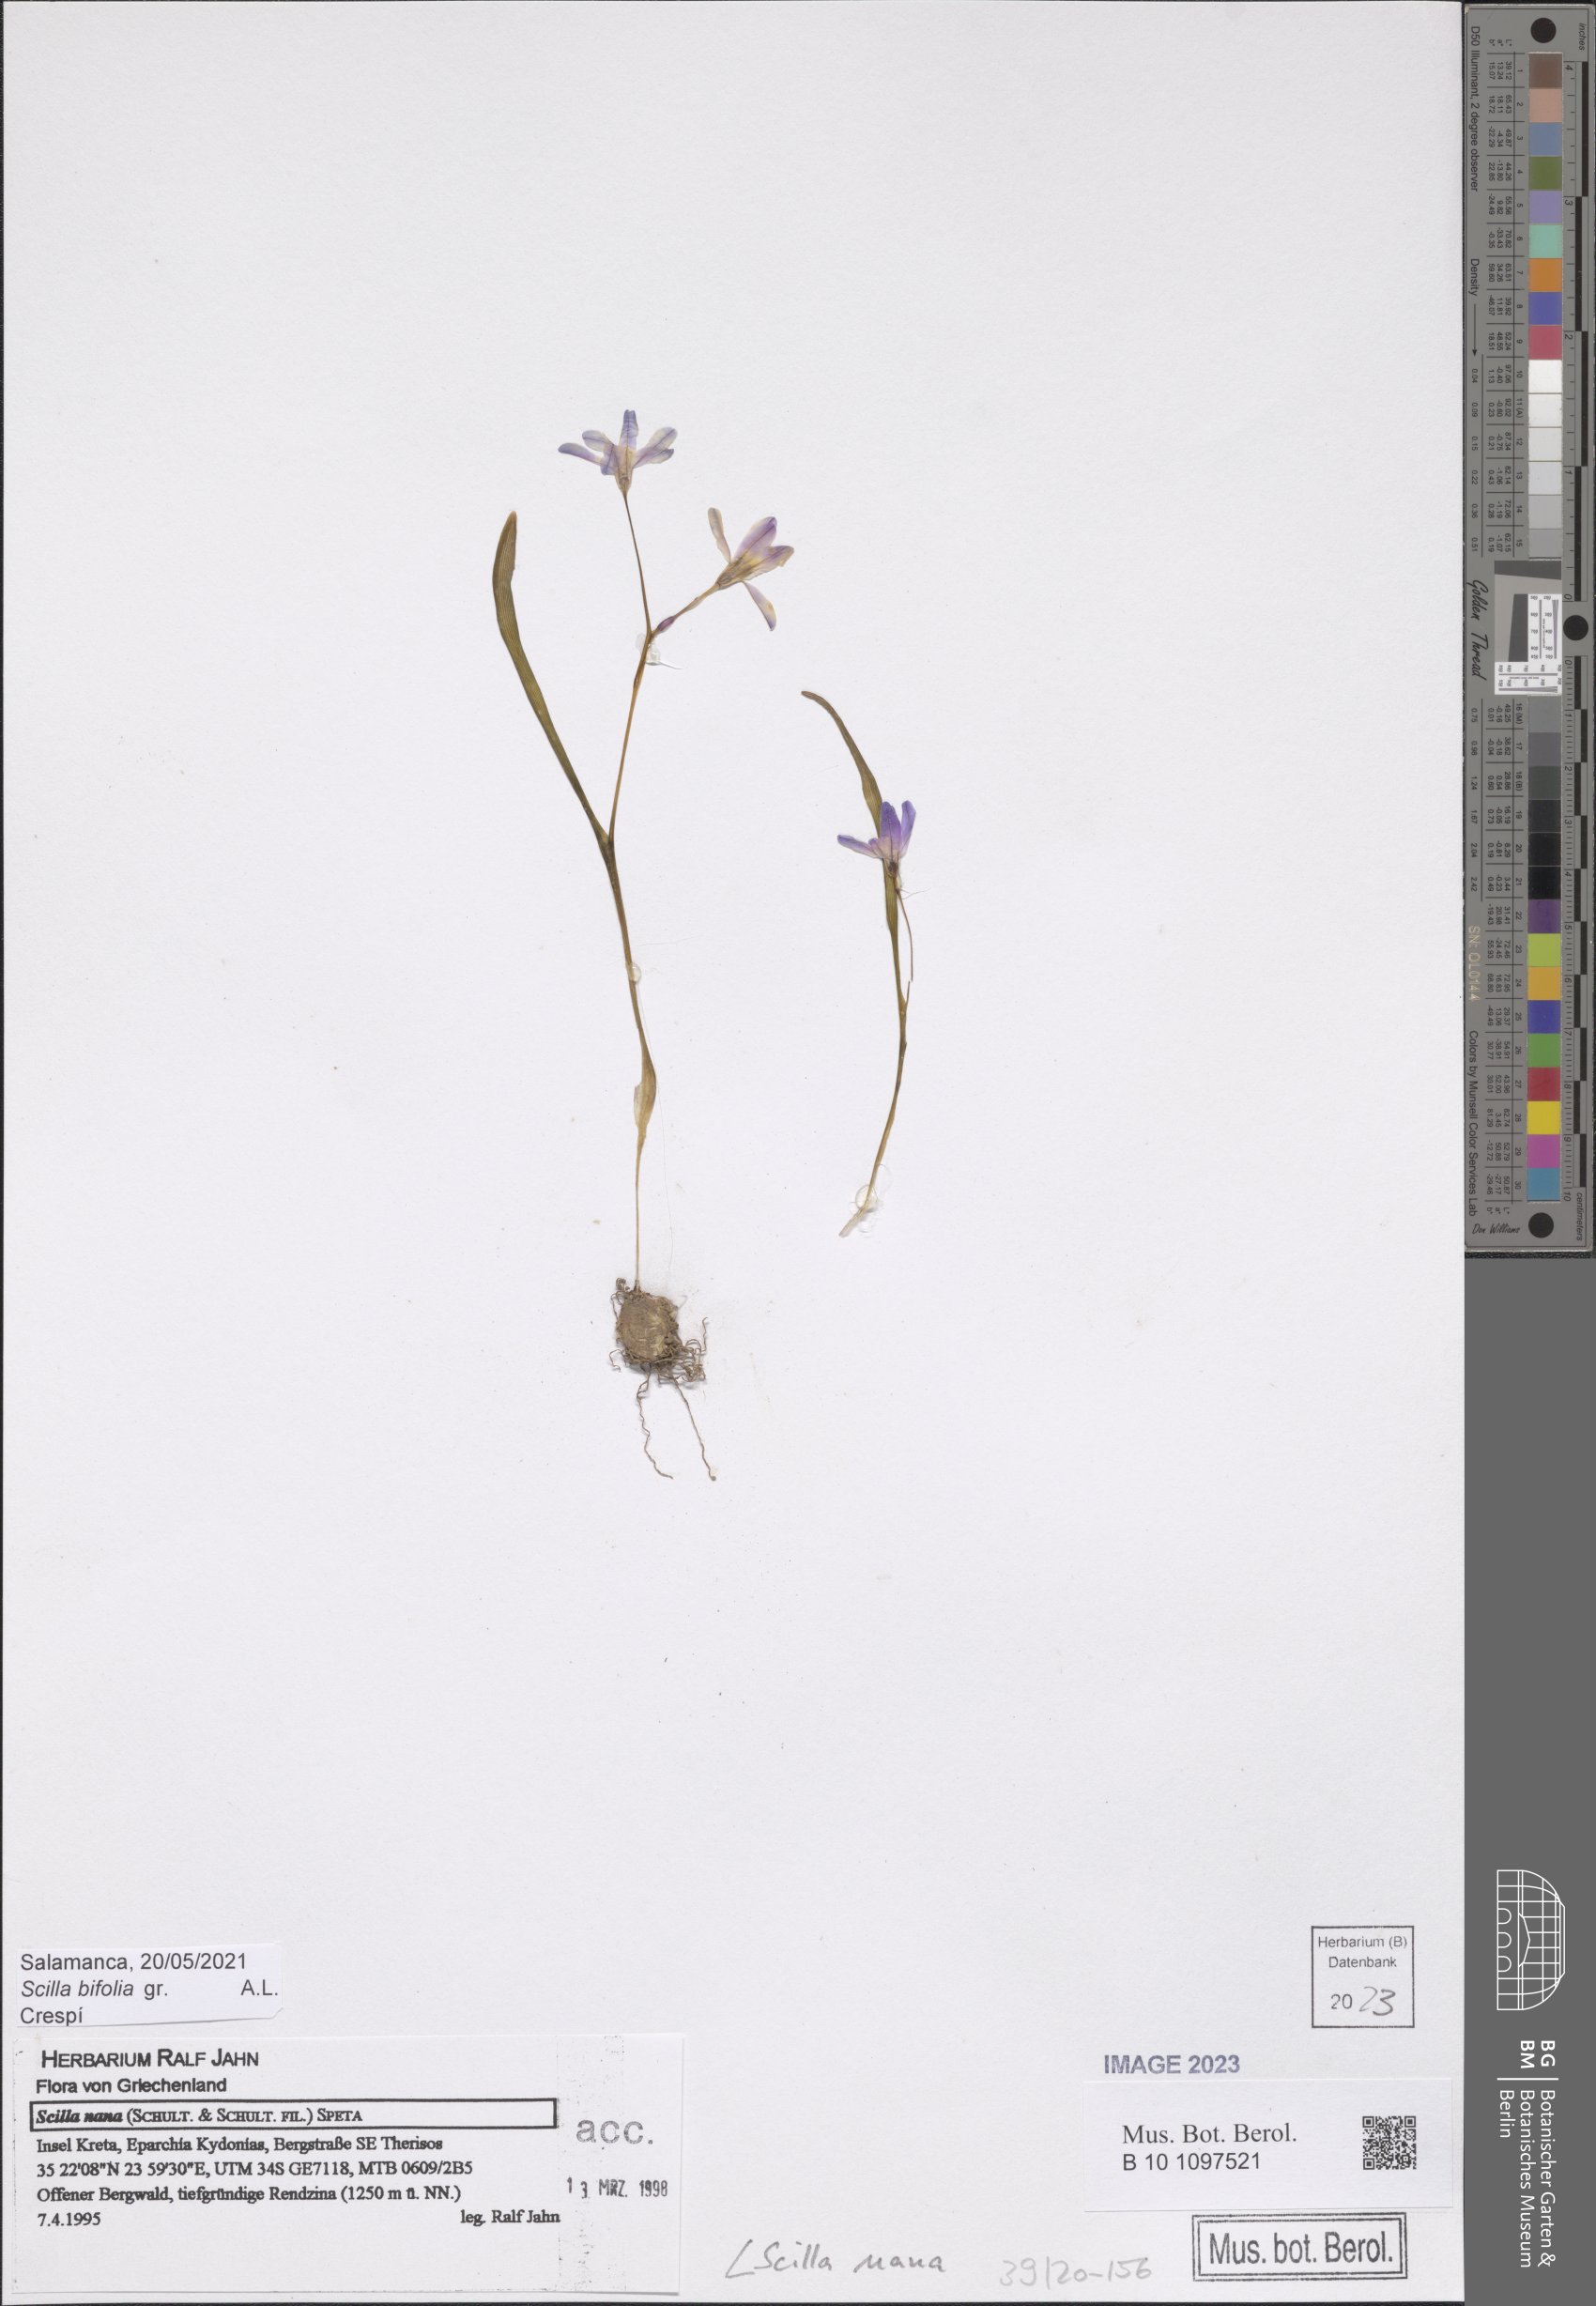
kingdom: Plantae
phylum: Tracheophyta
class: Liliopsida
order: Asparagales
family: Asparagaceae
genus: Scilla
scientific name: Scilla nana
